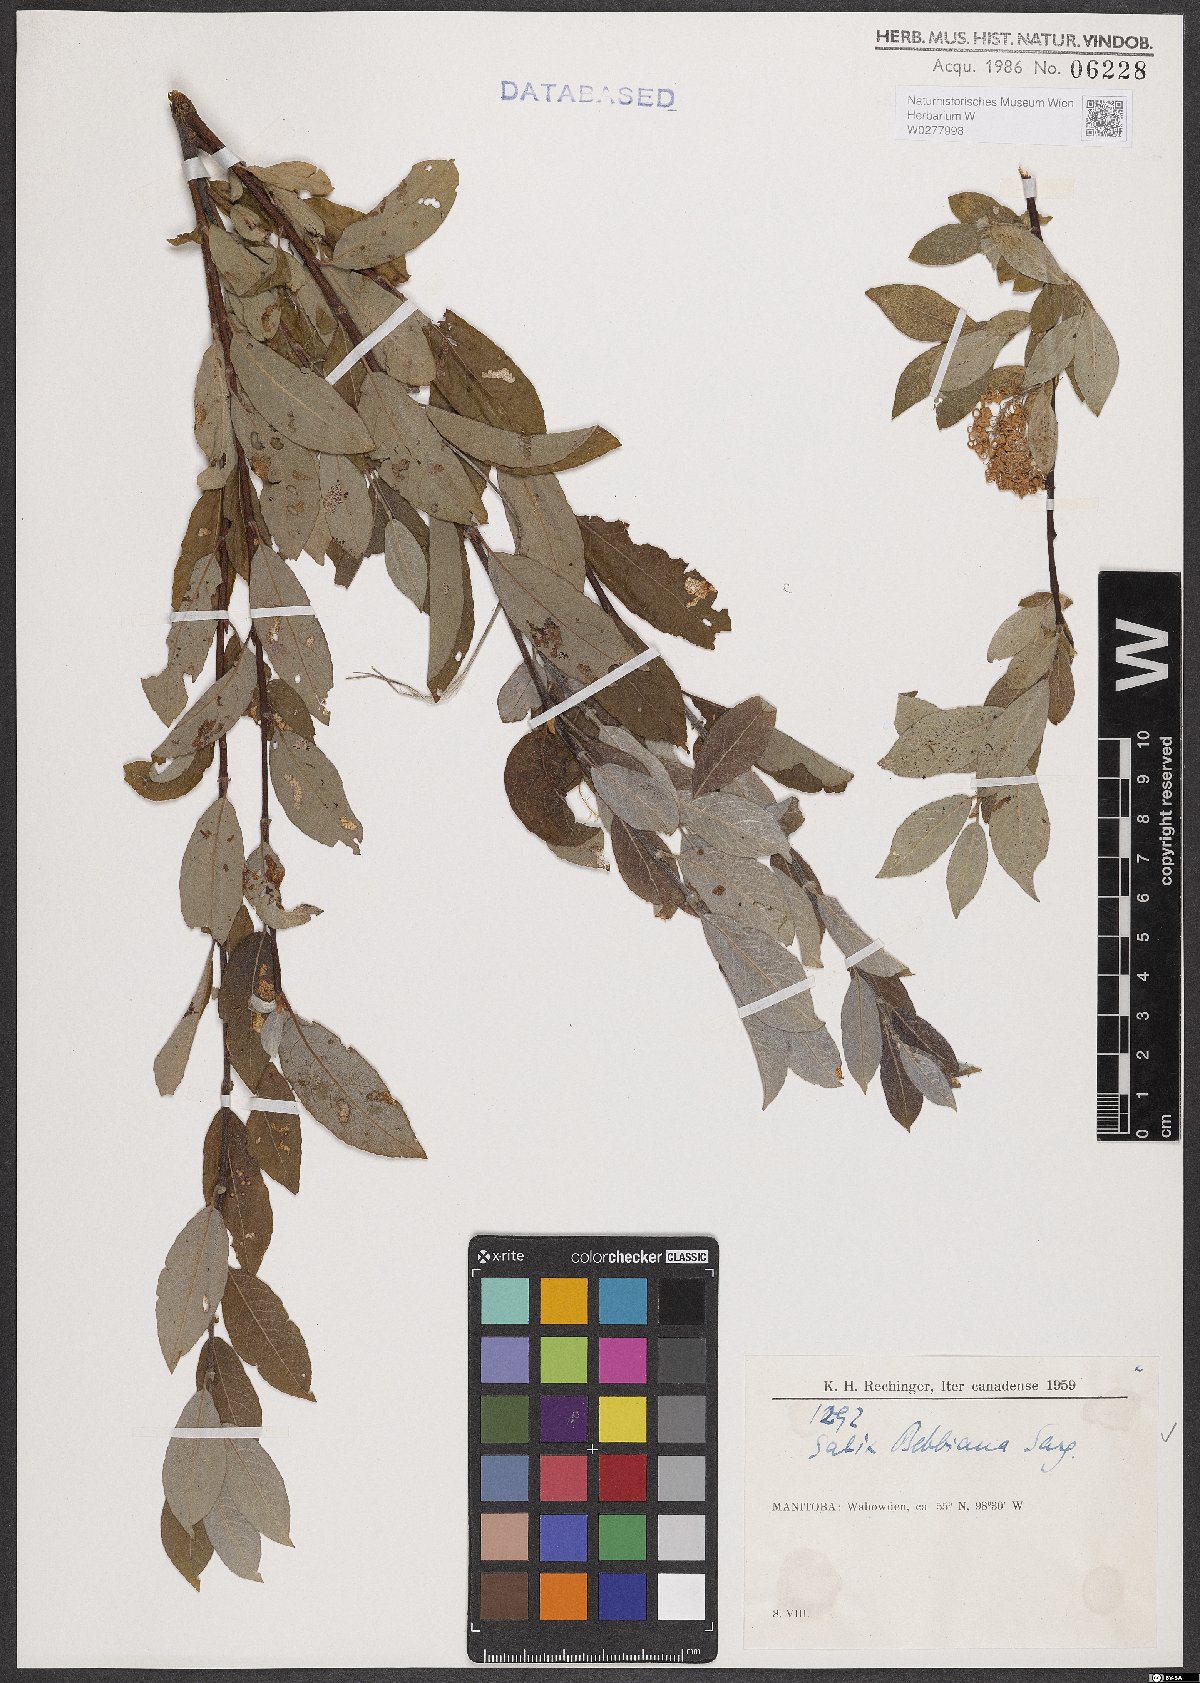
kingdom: Plantae
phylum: Tracheophyta
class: Magnoliopsida
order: Malpighiales
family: Salicaceae
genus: Salix
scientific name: Salix bebbiana
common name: Bebb's willow
